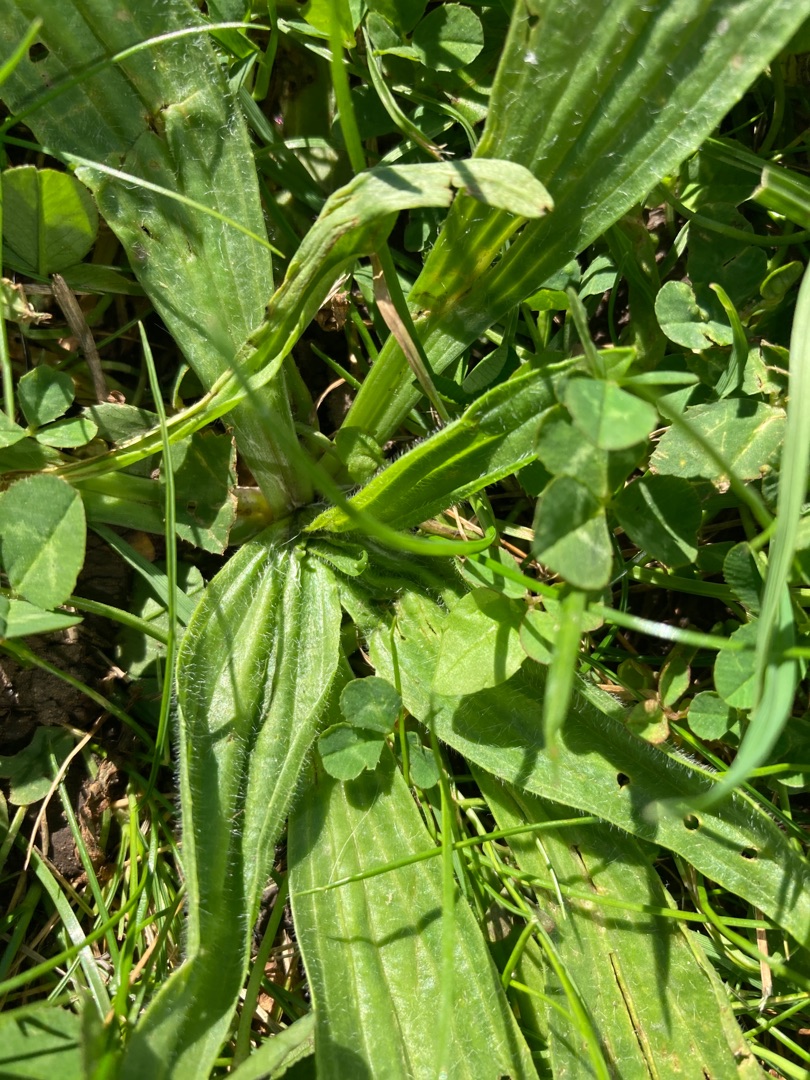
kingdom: Plantae
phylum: Tracheophyta
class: Magnoliopsida
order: Lamiales
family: Plantaginaceae
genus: Plantago
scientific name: Plantago lanceolata
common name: Lancet-vejbred
